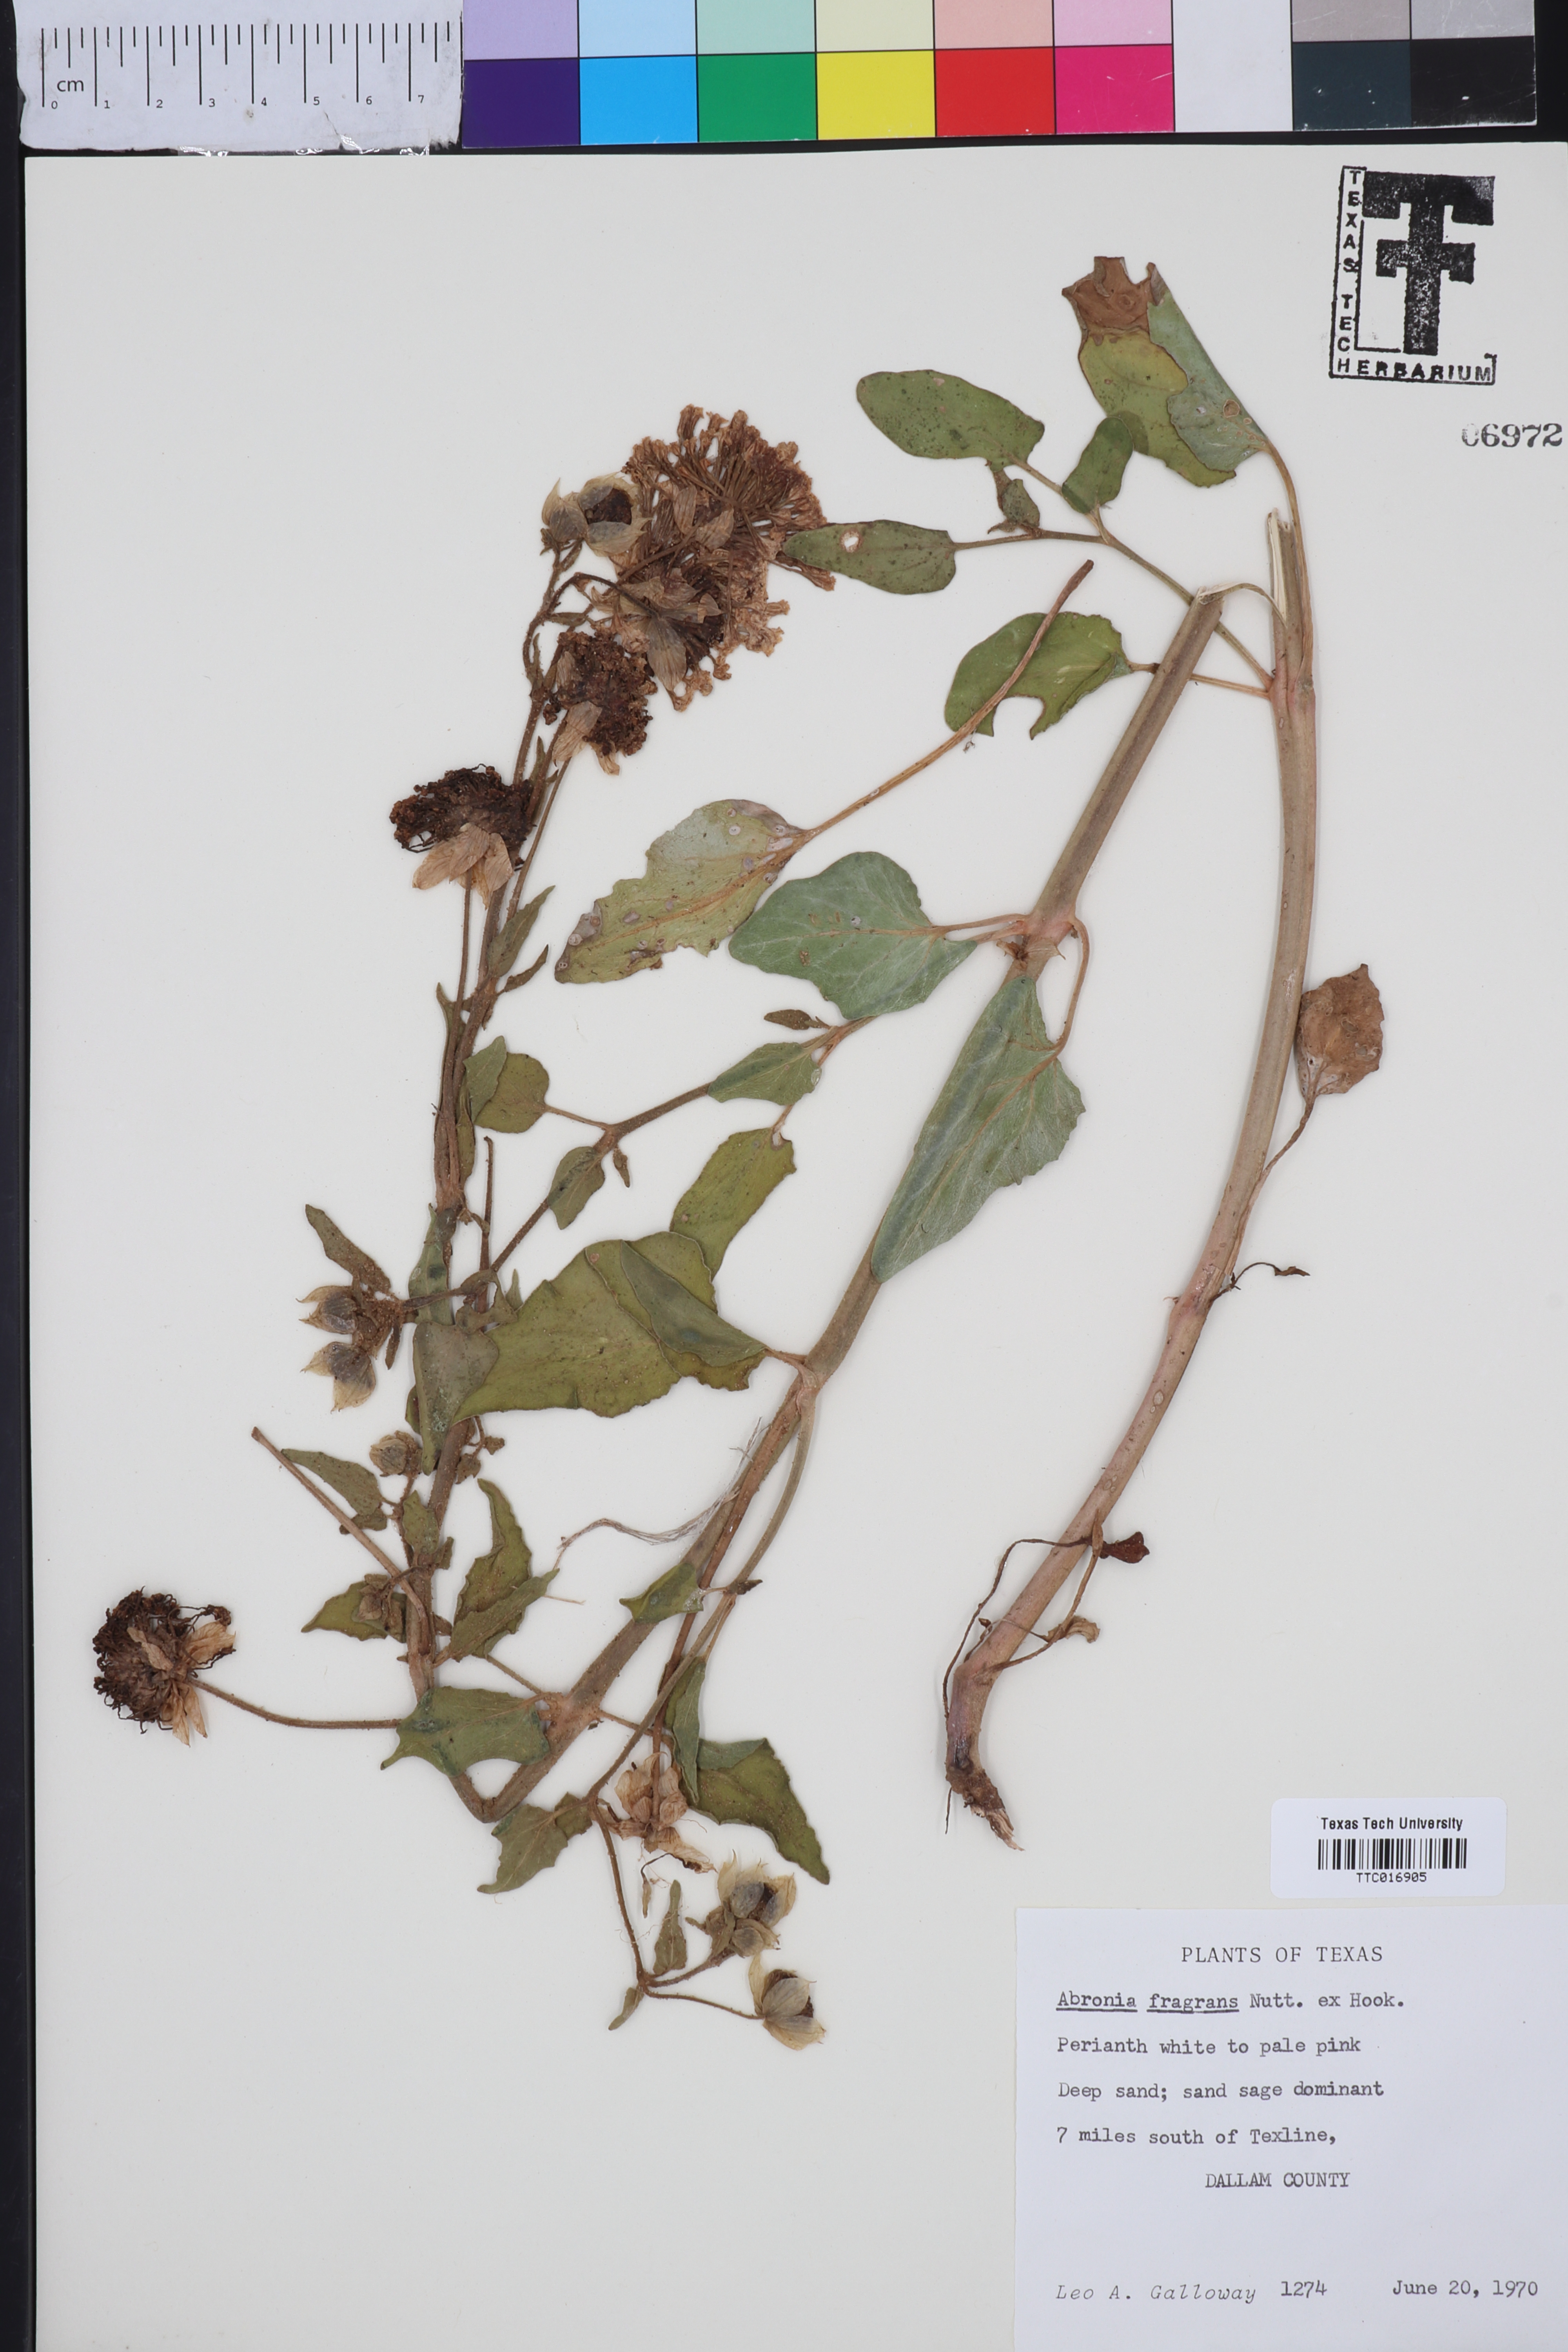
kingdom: Plantae
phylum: Tracheophyta
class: Magnoliopsida
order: Caryophyllales
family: Nyctaginaceae
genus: Abronia
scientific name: Abronia fragrans
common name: Fragrant sand-verbena
